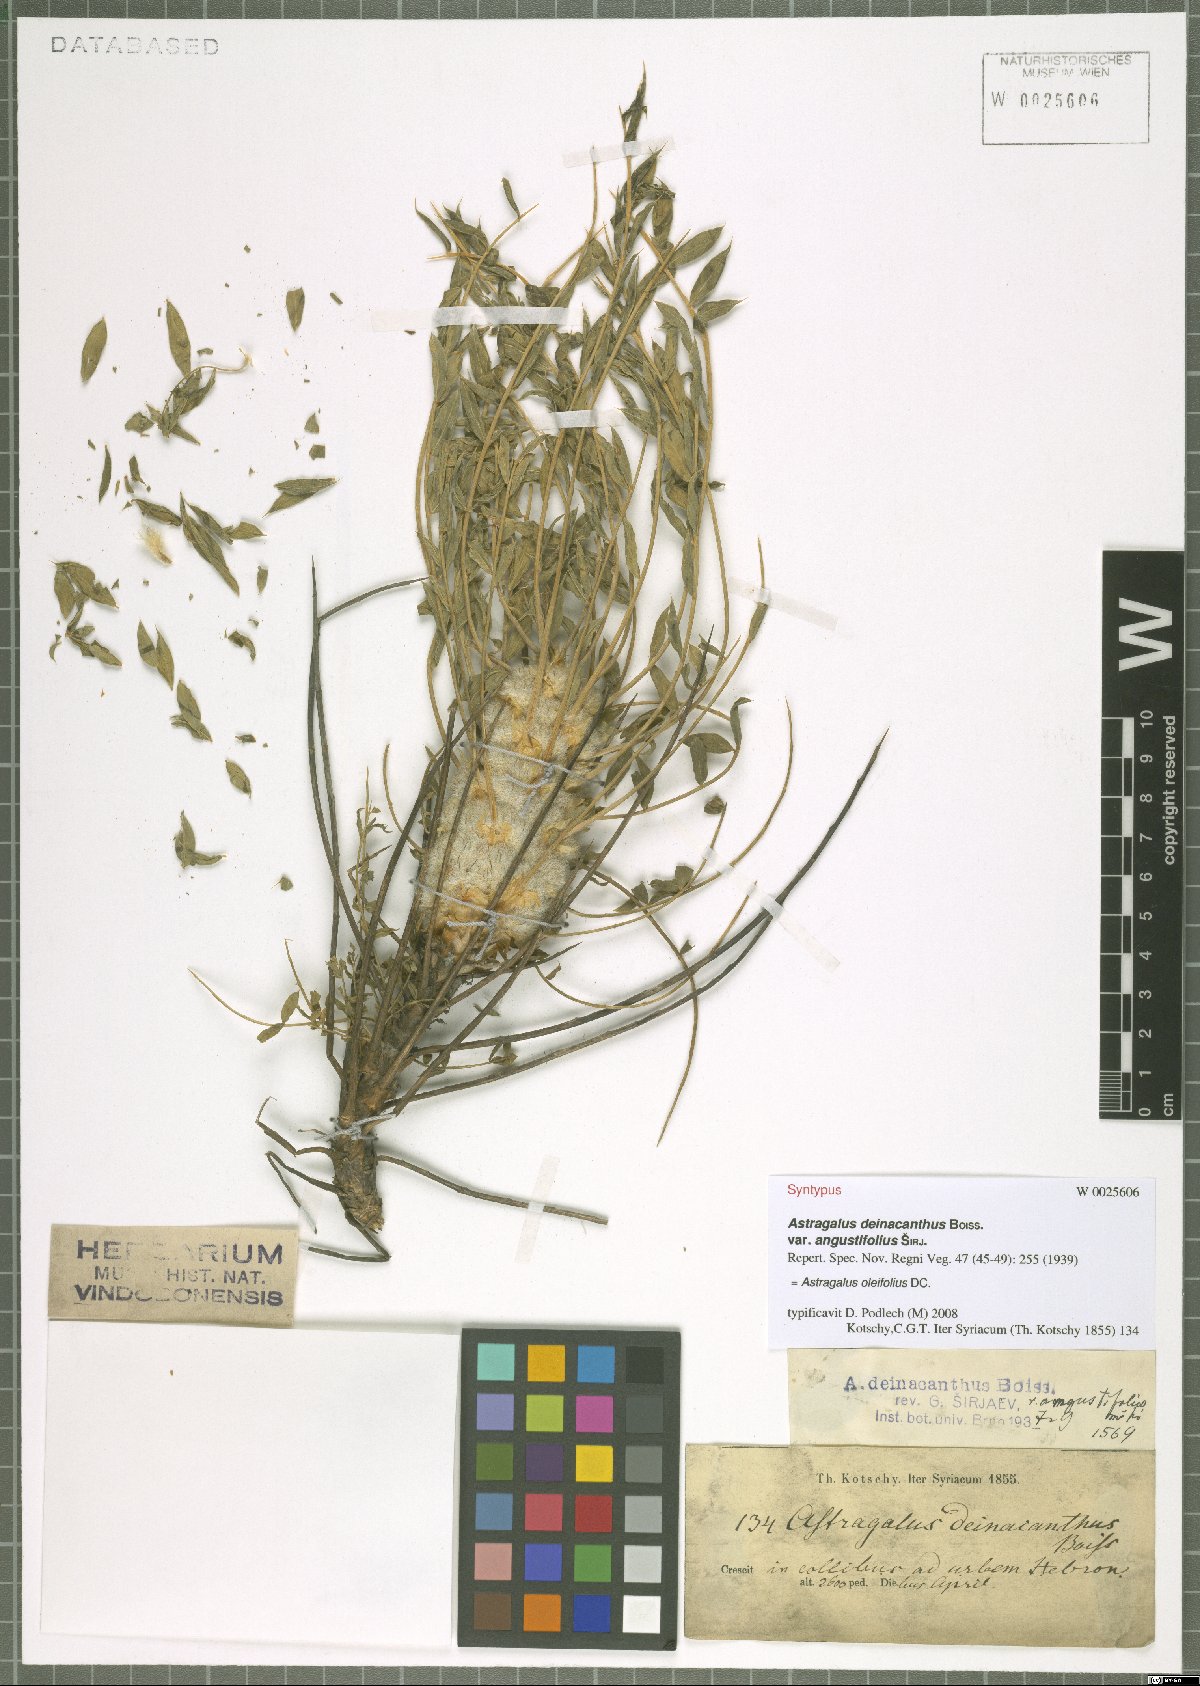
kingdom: Plantae
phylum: Tracheophyta
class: Magnoliopsida
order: Fabales
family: Fabaceae
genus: Astragalus
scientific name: Astragalus oleifolius
